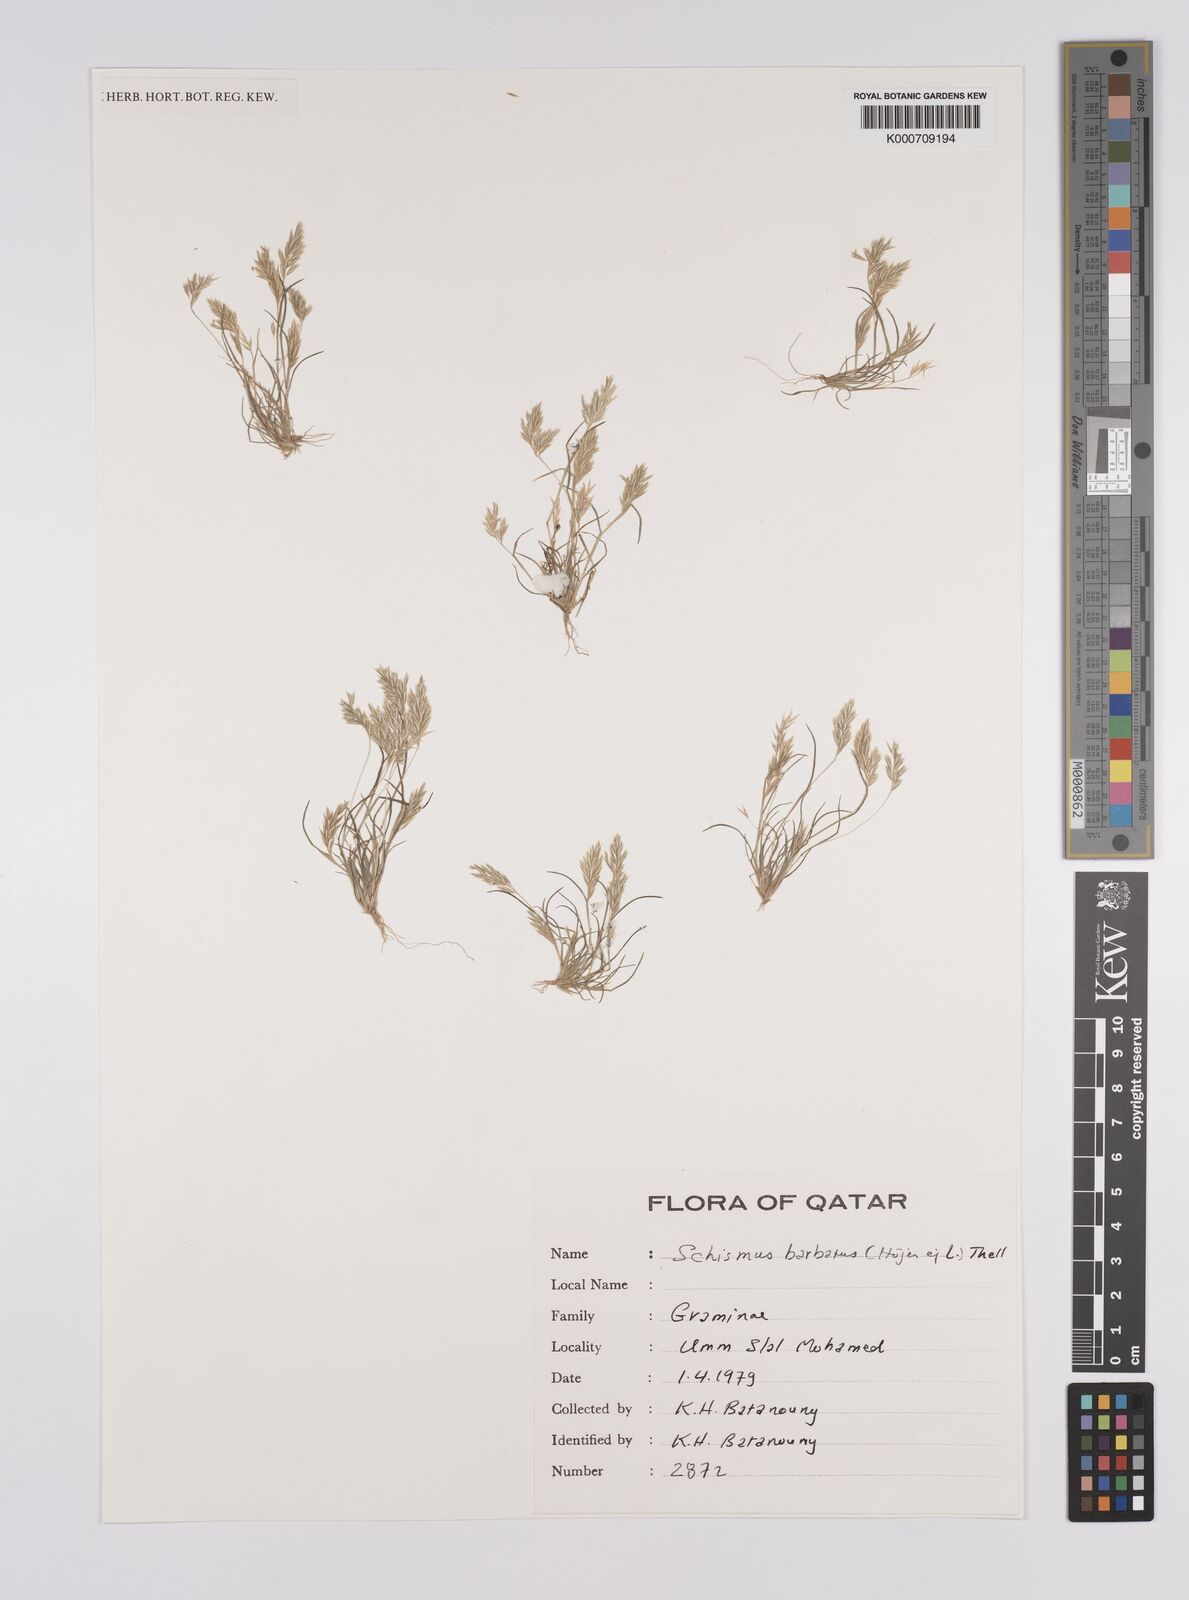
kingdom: Plantae
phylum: Tracheophyta
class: Liliopsida
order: Poales
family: Poaceae
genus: Schismus
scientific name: Schismus barbatus
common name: Kelch-grass
